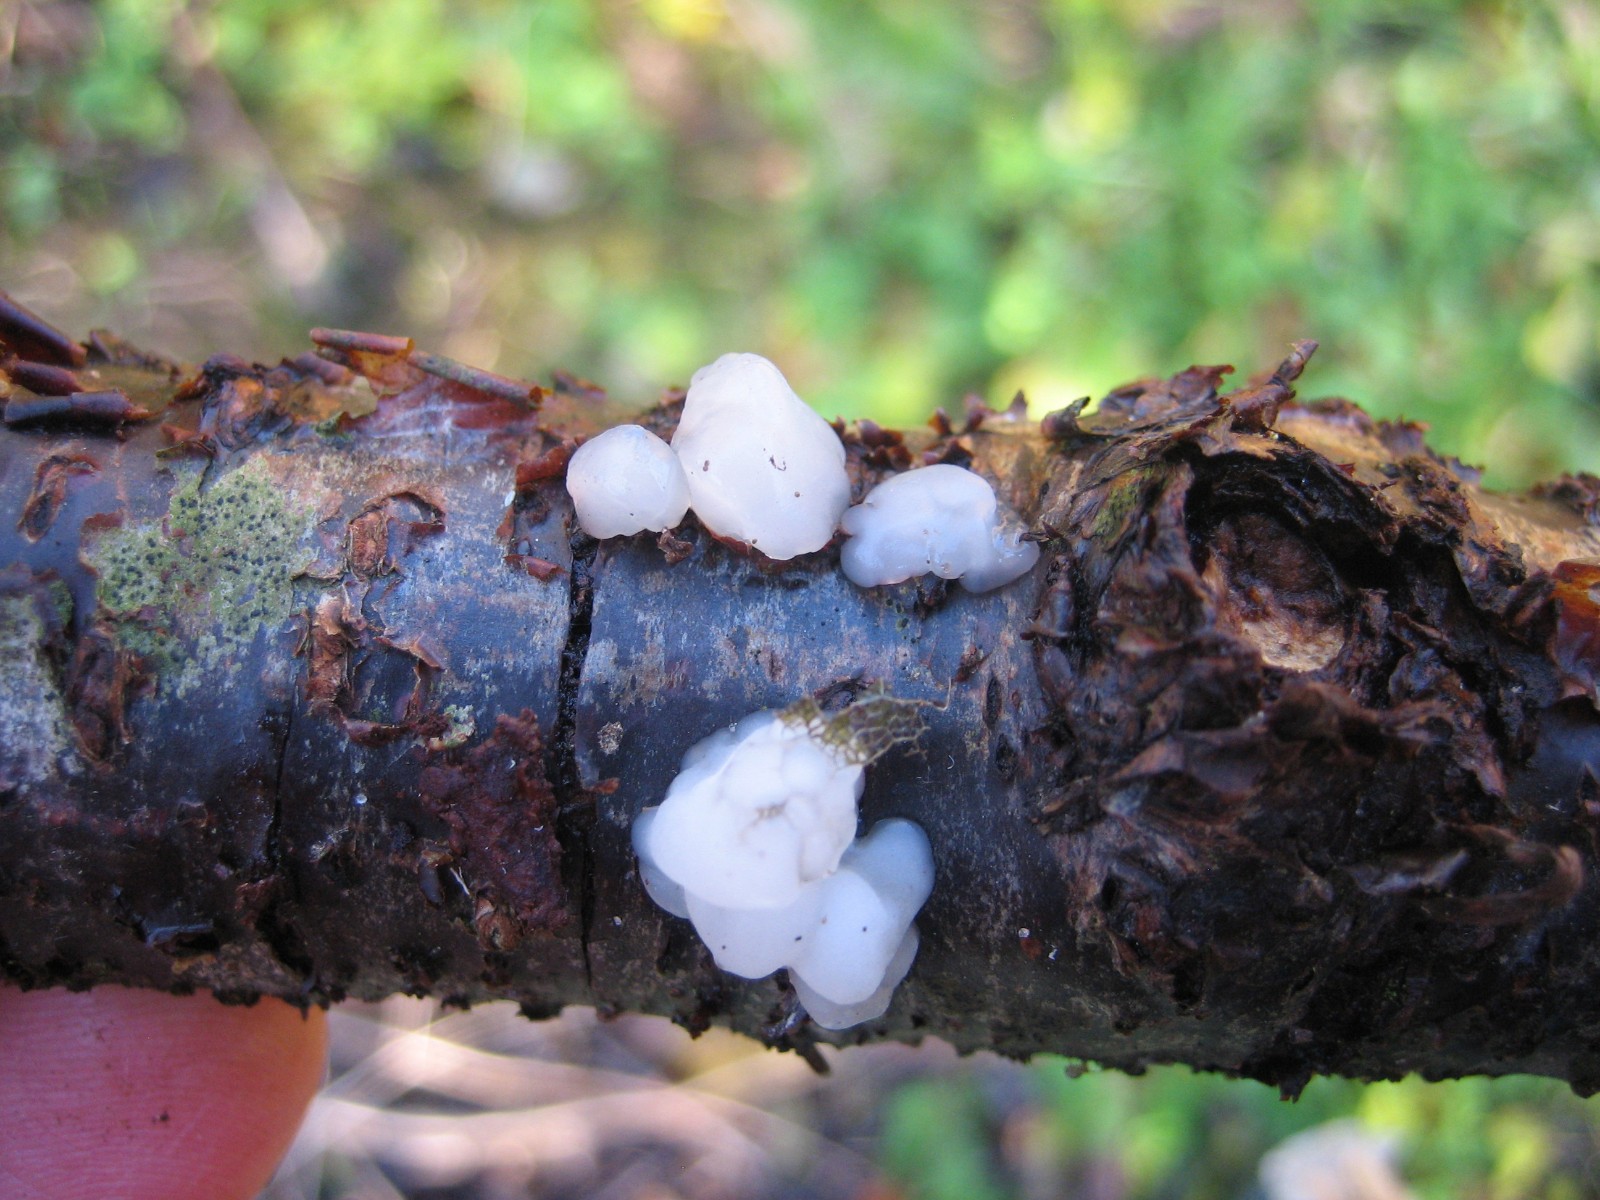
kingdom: Fungi
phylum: Basidiomycota
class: Agaricomycetes
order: Auriculariales
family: Auriculariaceae
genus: Exidia
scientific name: Exidia thuretiana
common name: hvidlig bævretop
